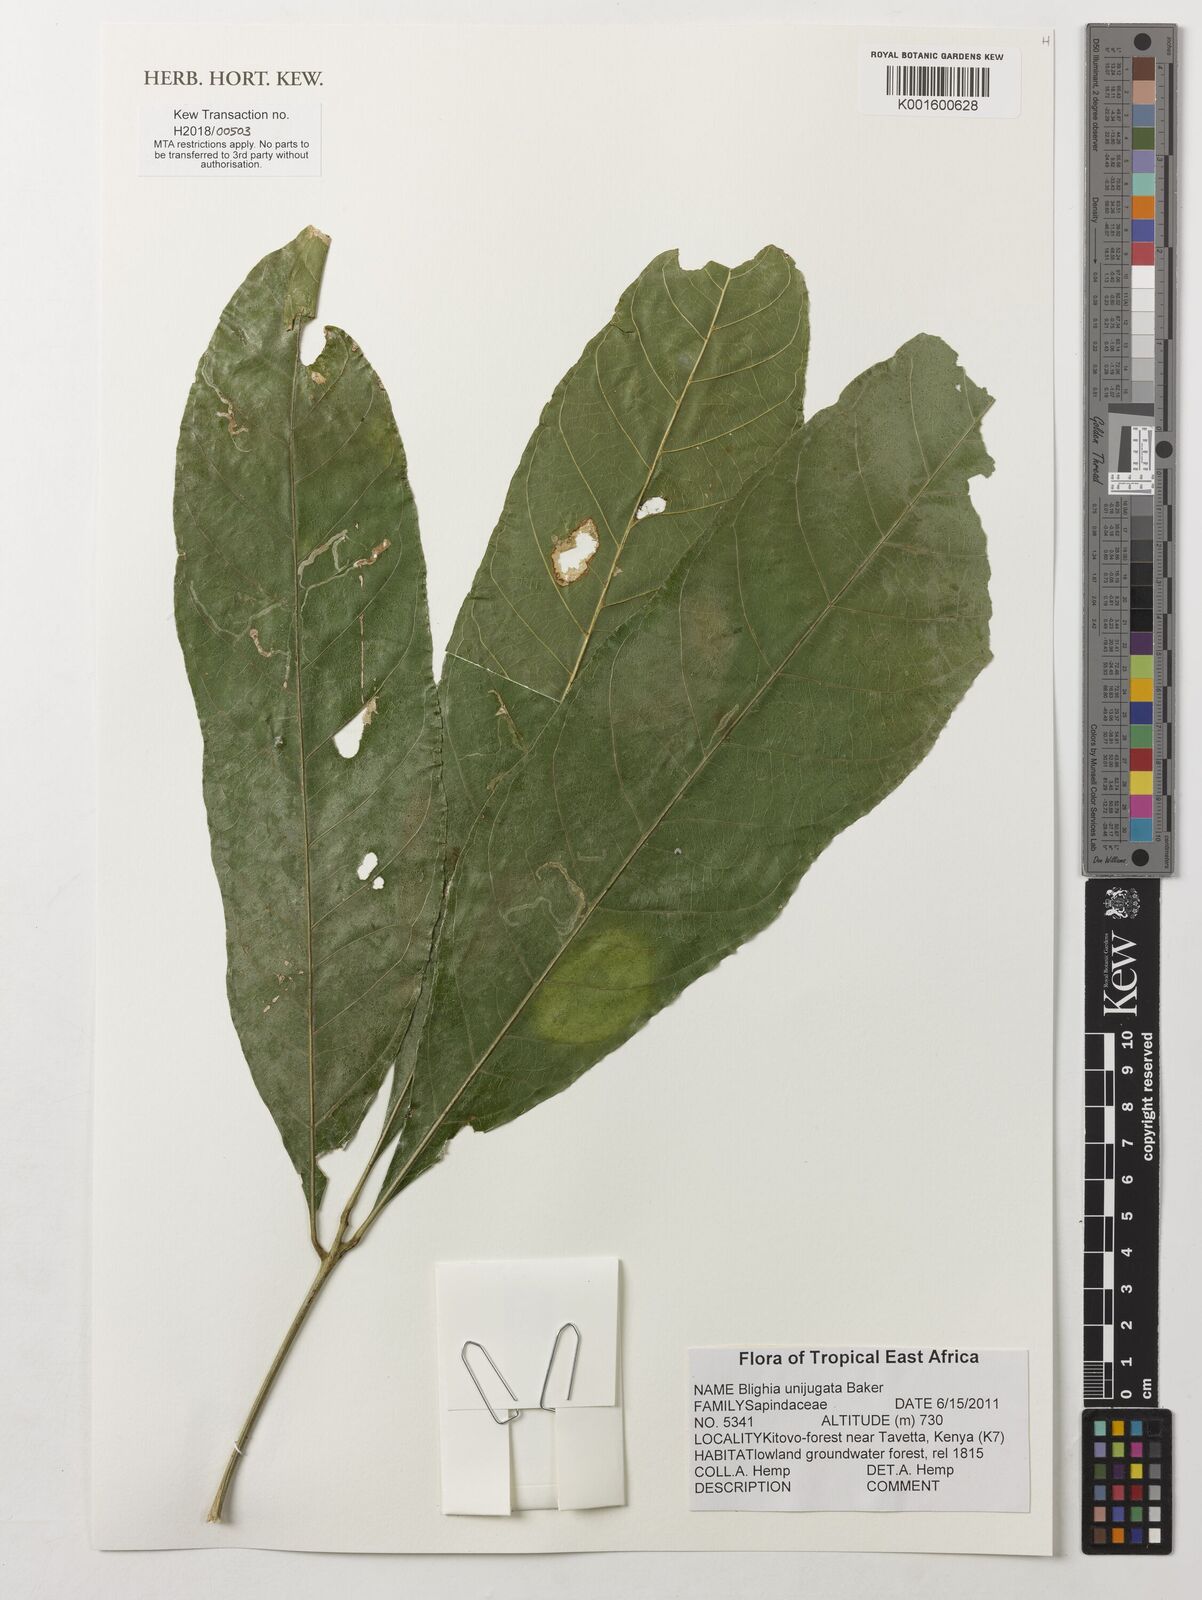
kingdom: Plantae
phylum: Tracheophyta
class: Magnoliopsida
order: Sapindales
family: Sapindaceae
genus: Blighia
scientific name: Blighia unijugata
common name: Triangle tops
